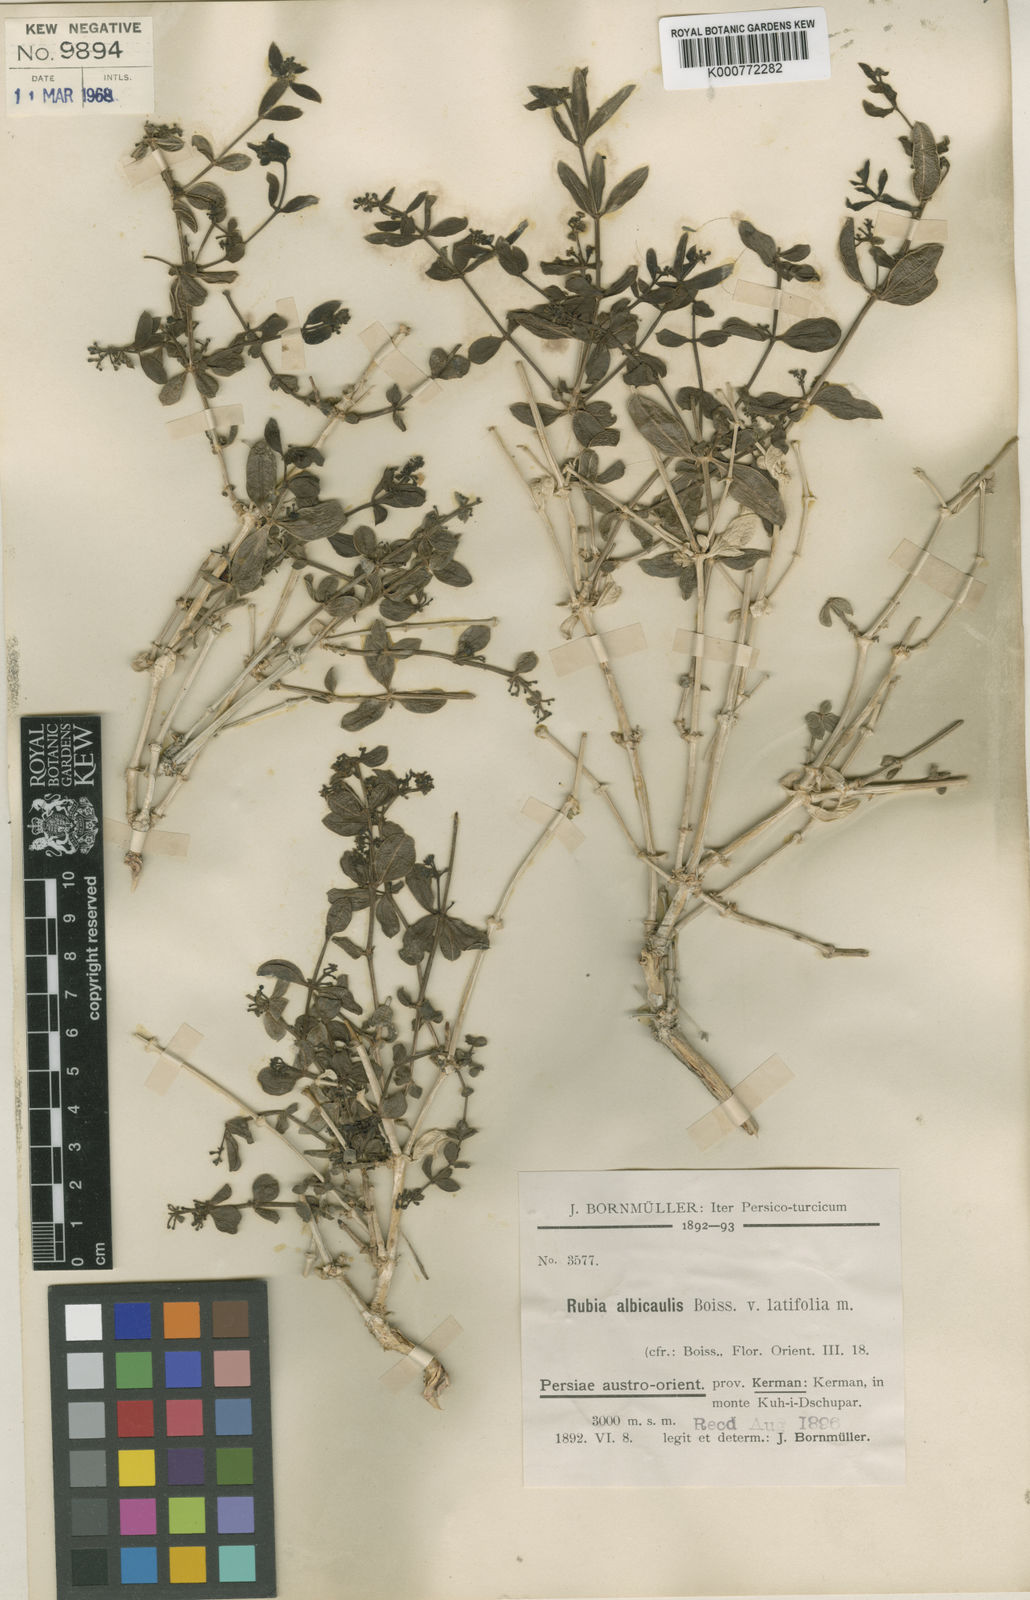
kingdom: Plantae
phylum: Tracheophyta
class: Magnoliopsida
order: Gentianales
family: Rubiaceae
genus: Rubia
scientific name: Rubia albicaulis
